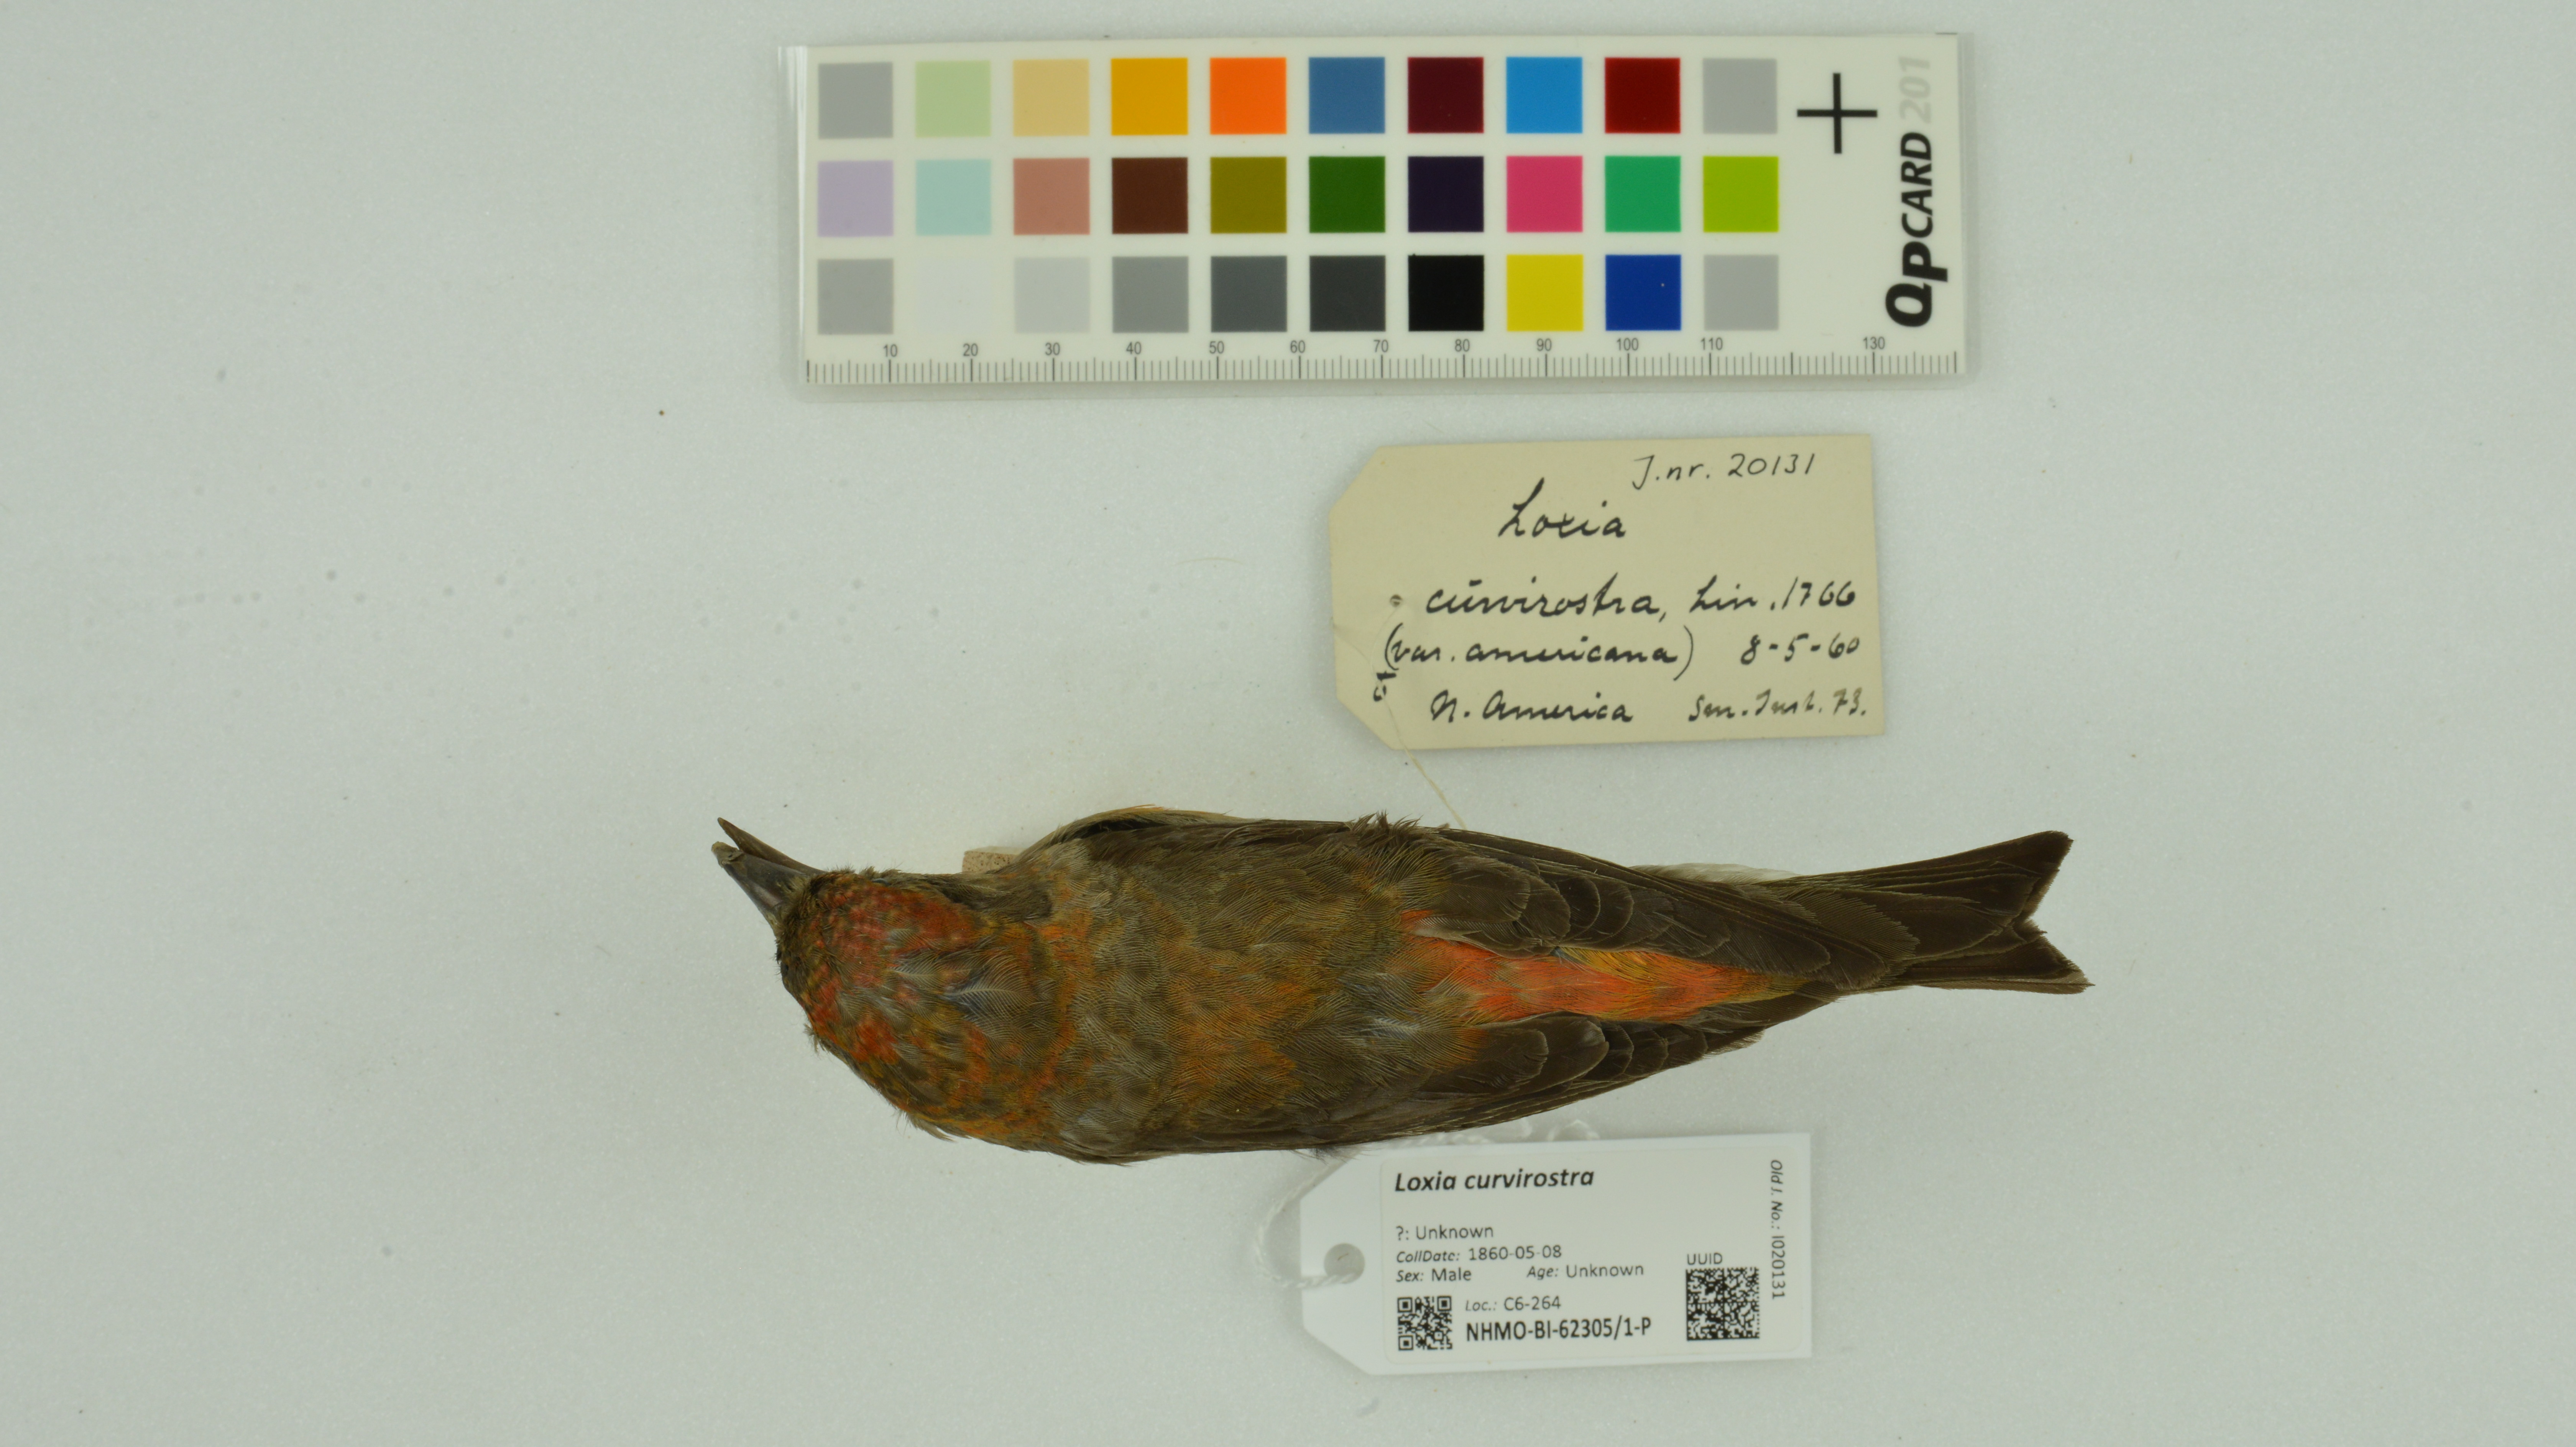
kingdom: Animalia
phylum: Chordata
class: Aves
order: Passeriformes
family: Fringillidae
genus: Loxia
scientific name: Loxia curvirostra
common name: Red crossbill
